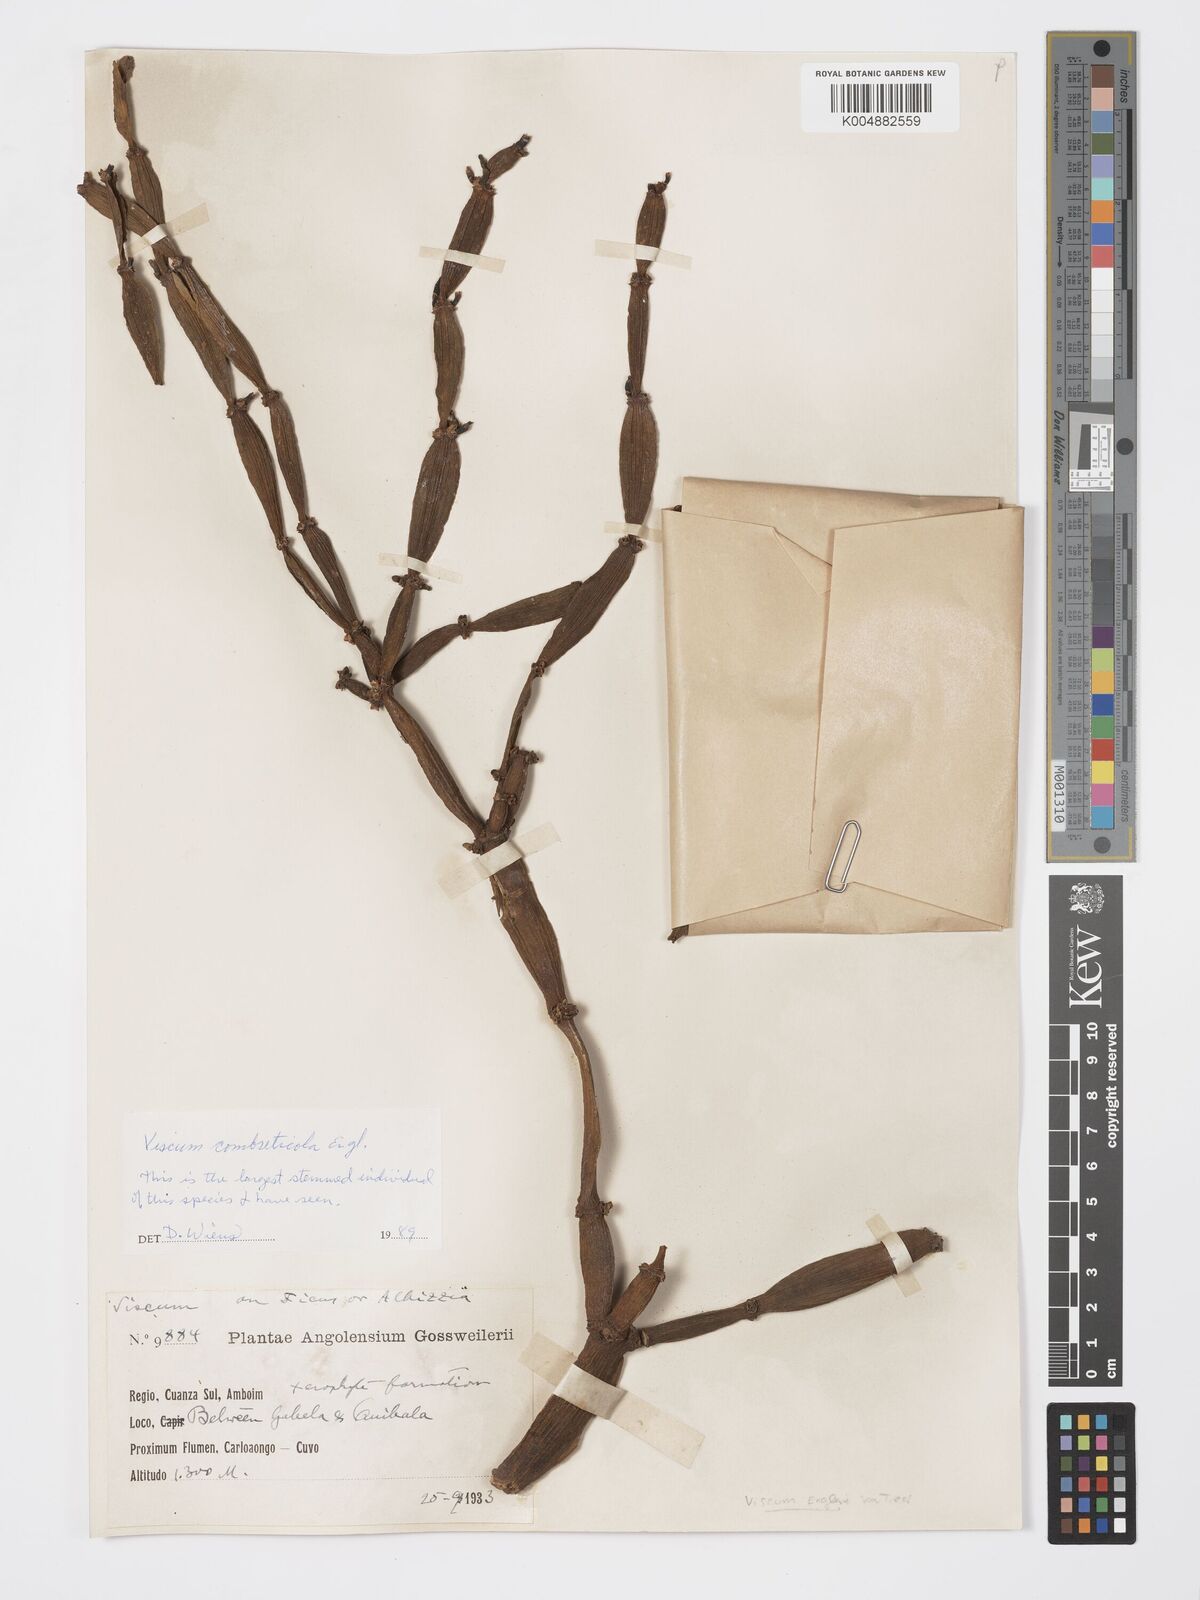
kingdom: Plantae
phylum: Tracheophyta
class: Magnoliopsida
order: Santalales
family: Viscaceae
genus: Viscum
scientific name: Viscum combreticola
